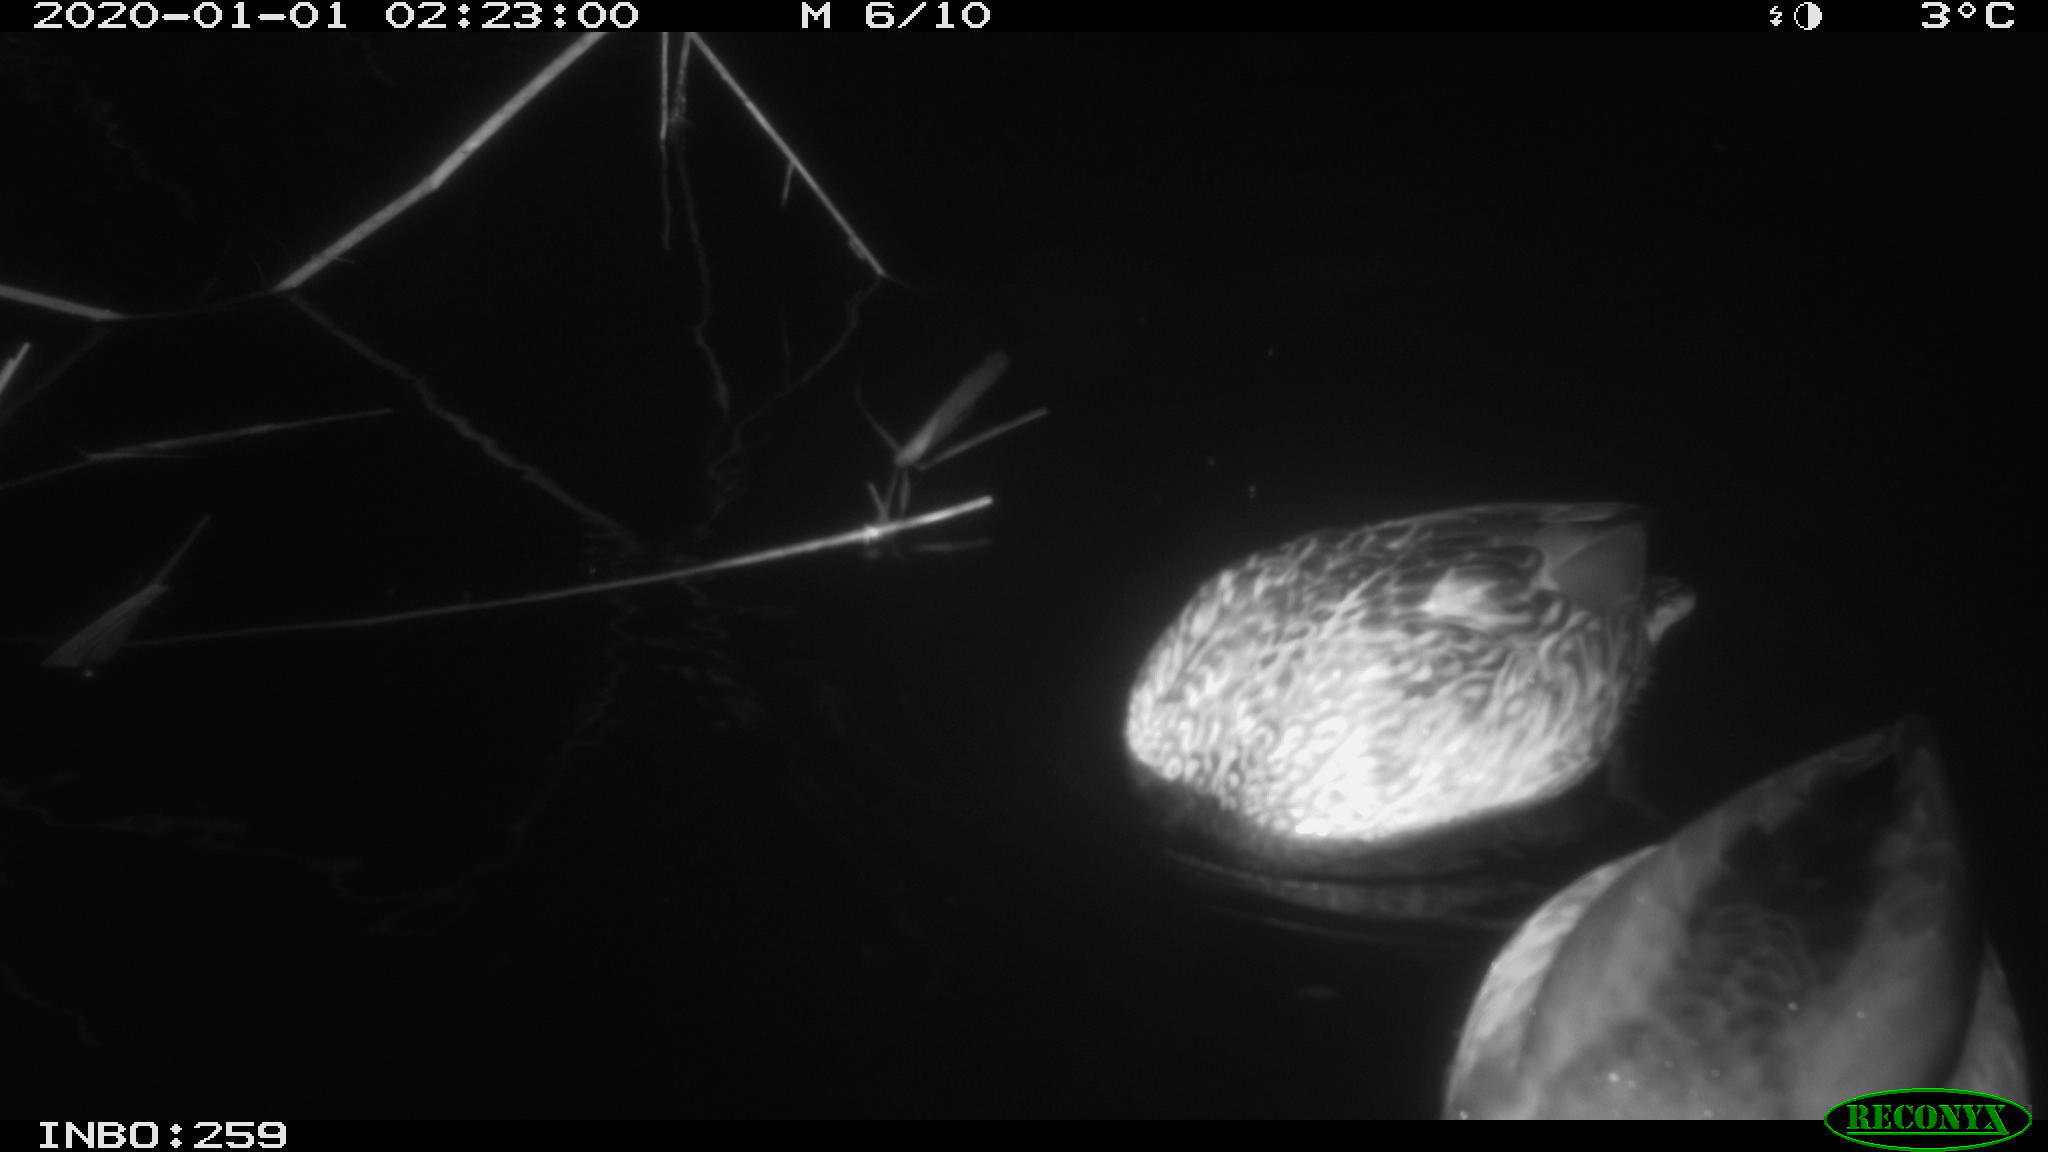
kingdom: Animalia
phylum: Chordata
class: Aves
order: Anseriformes
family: Anatidae
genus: Anas
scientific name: Anas platyrhynchos
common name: Mallard
